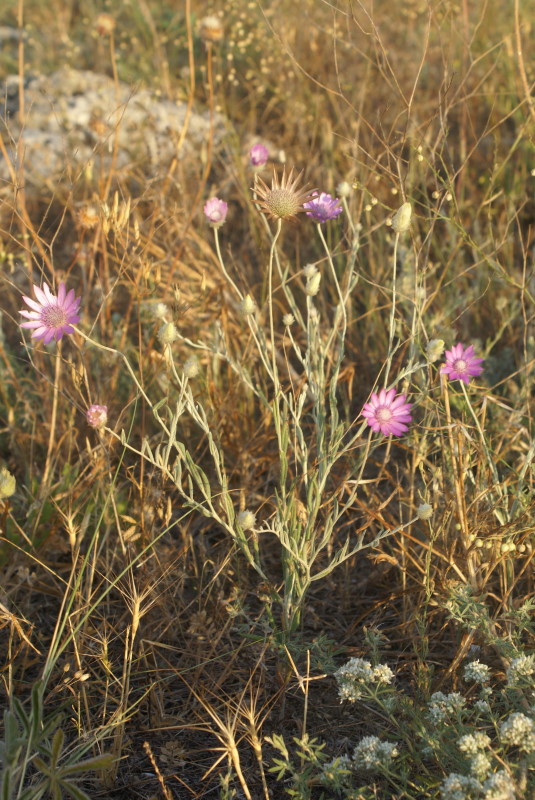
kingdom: Plantae
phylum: Tracheophyta
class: Magnoliopsida
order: Asterales
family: Asteraceae
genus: Xeranthemum
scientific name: Xeranthemum annuum
